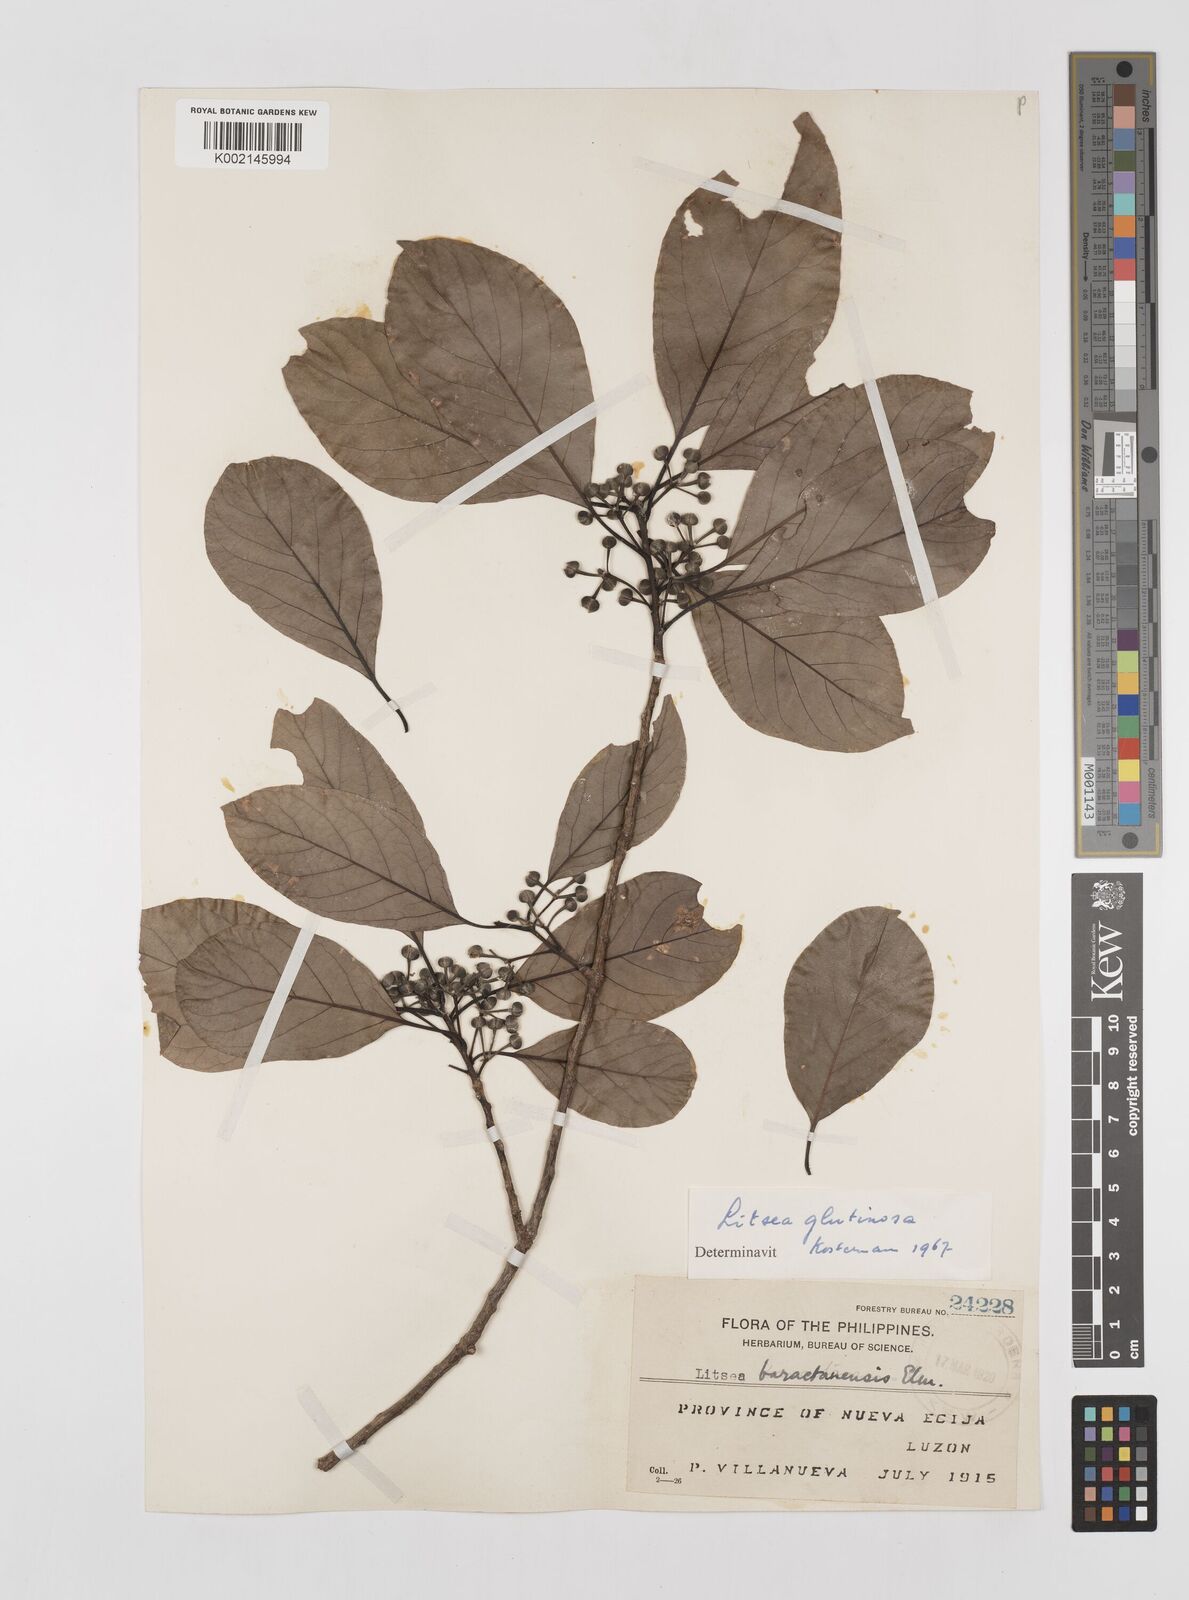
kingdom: Plantae
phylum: Tracheophyta
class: Magnoliopsida
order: Laurales
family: Lauraceae
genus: Litsea
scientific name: Litsea glutinosa
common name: Indian-laurel
